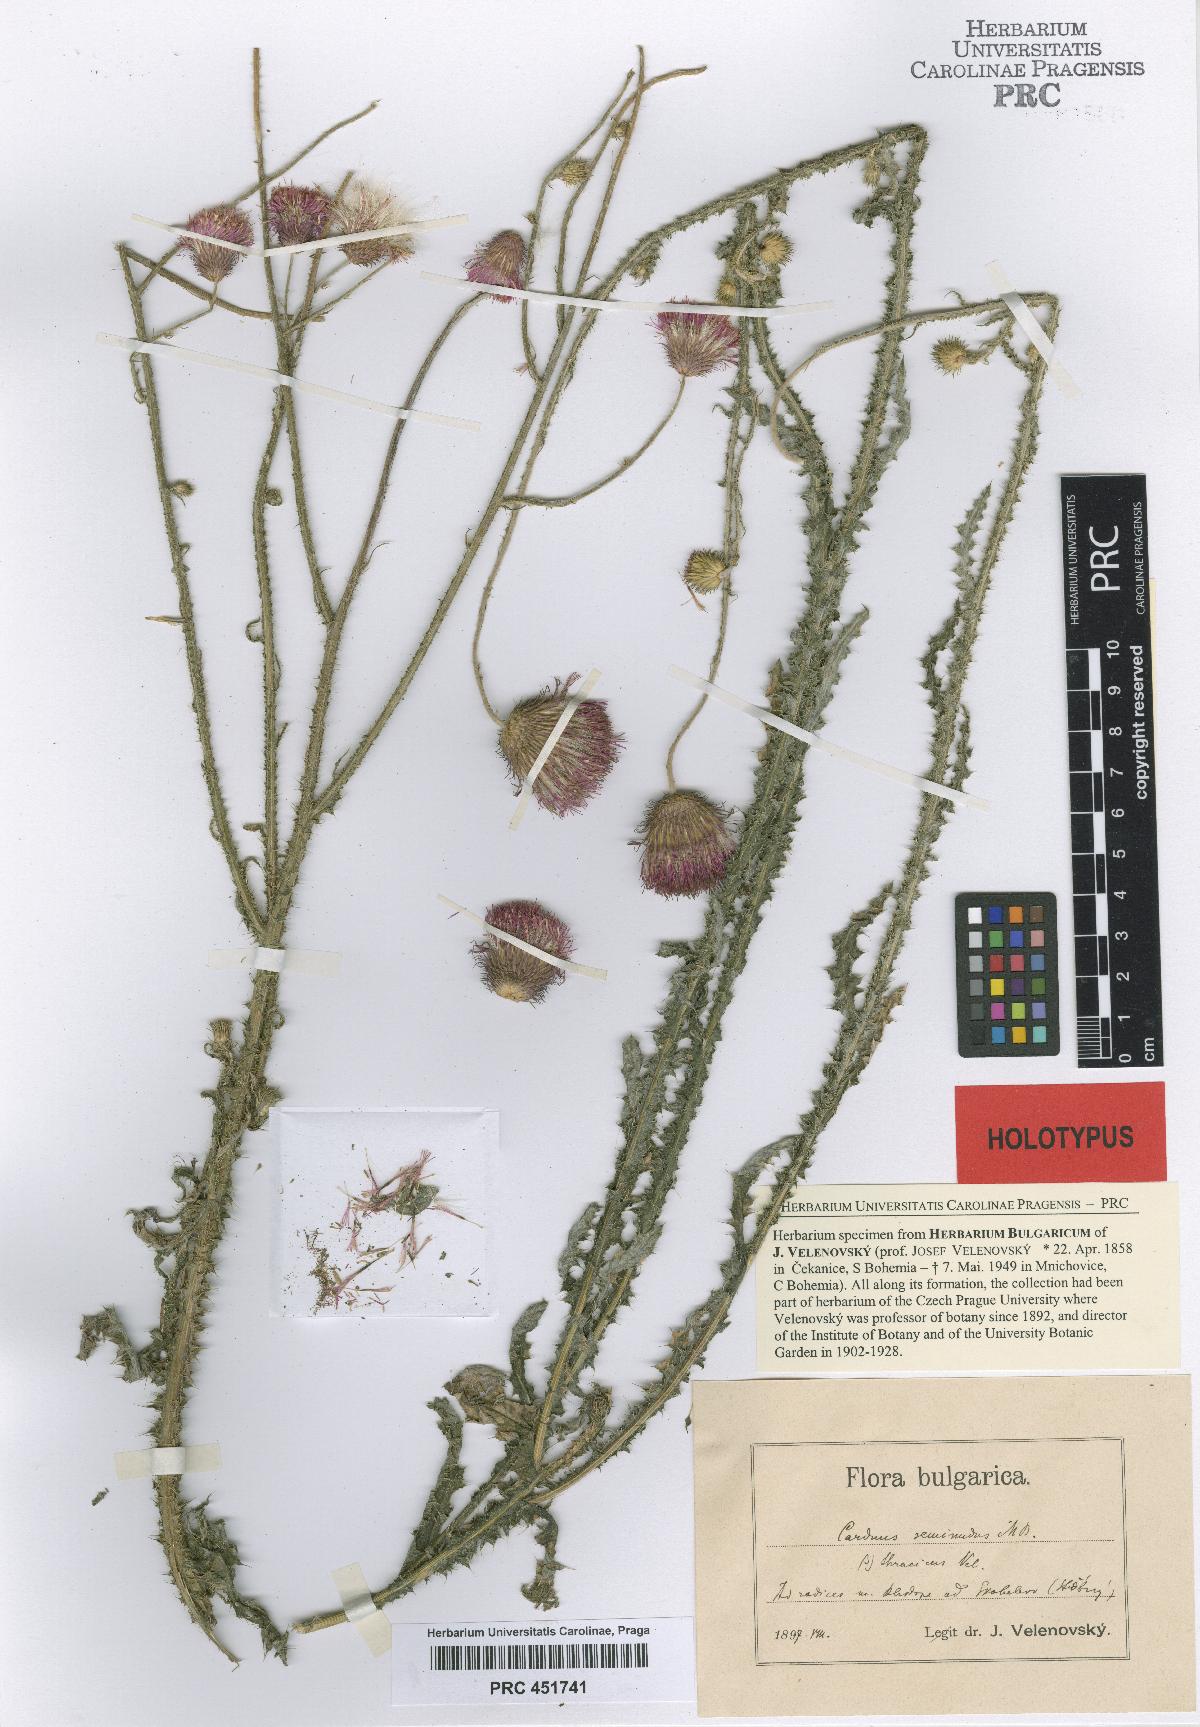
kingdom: Plantae
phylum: Tracheophyta
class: Magnoliopsida
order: Asterales
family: Asteraceae
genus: Carduus
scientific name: Carduus thracicus
